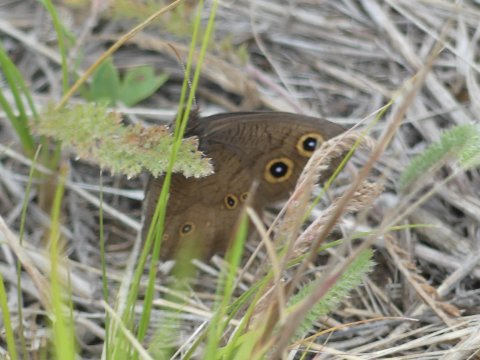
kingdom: Animalia
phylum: Arthropoda
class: Insecta
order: Lepidoptera
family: Nymphalidae
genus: Cercyonis
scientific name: Cercyonis pegala
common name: Common Wood-Nymph
